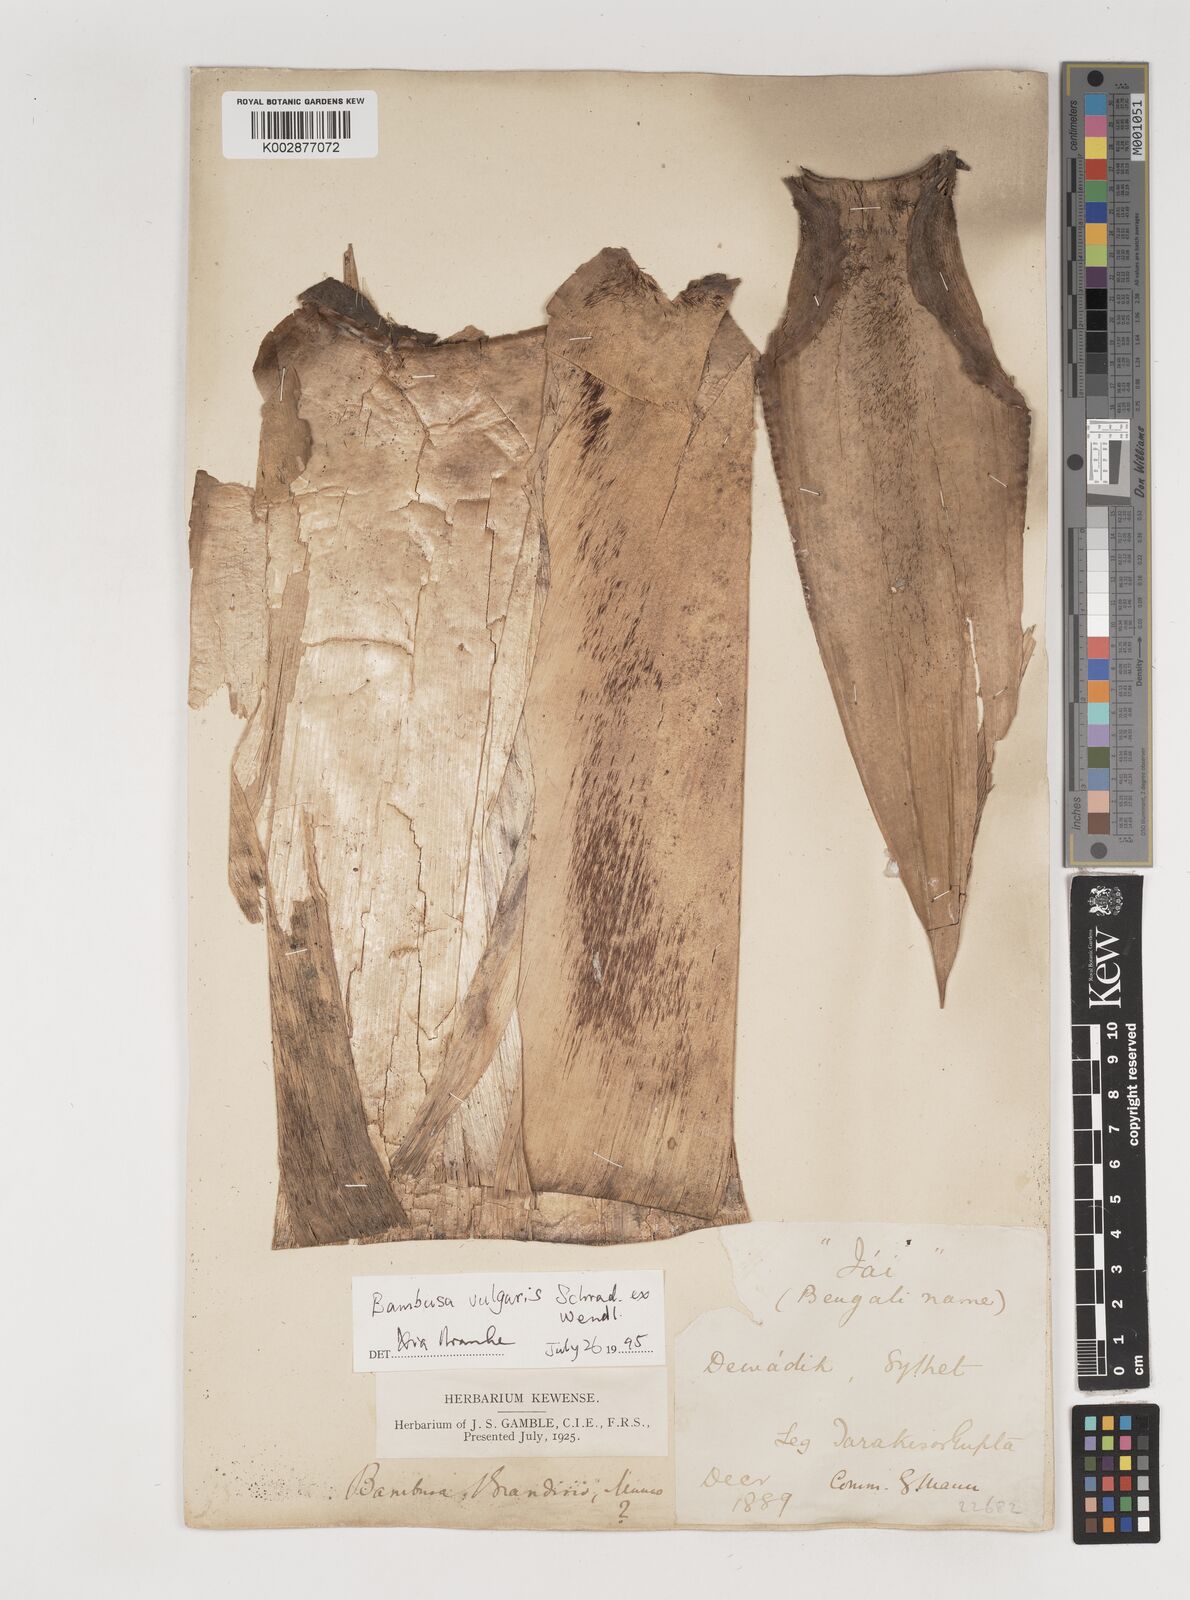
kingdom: Plantae
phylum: Tracheophyta
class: Liliopsida
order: Poales
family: Poaceae
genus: Bambusa
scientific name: Bambusa
